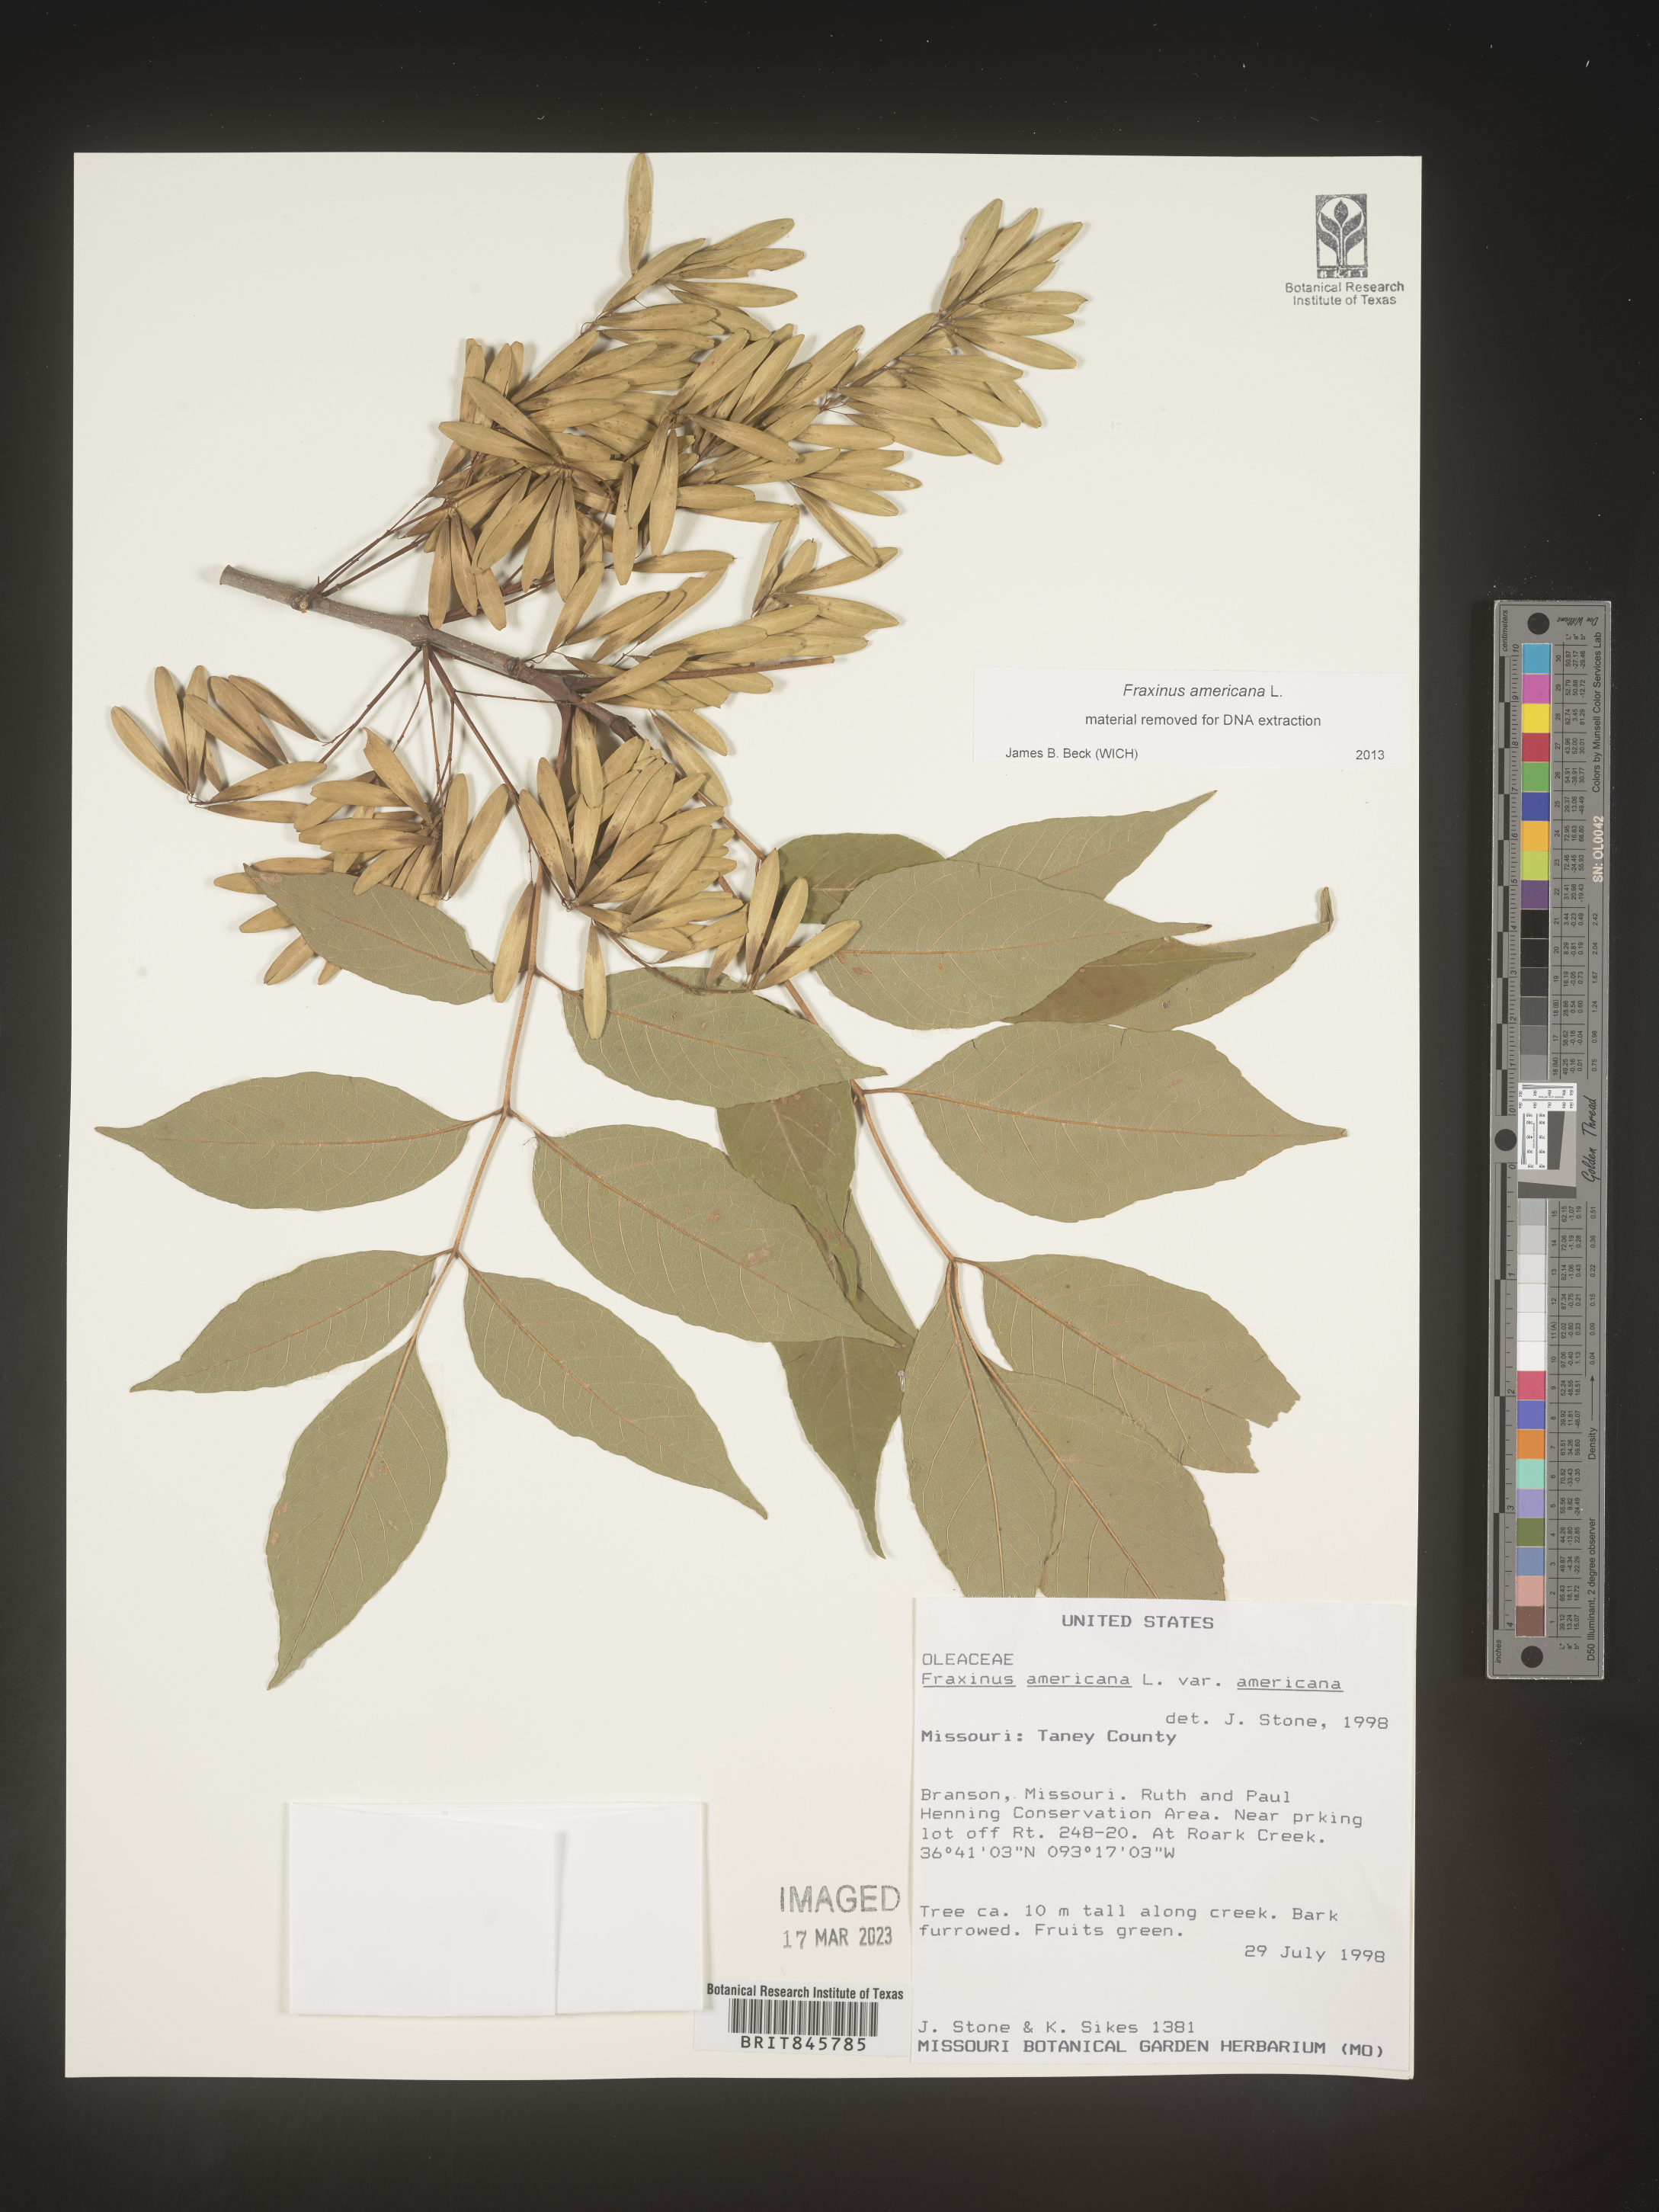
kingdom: Plantae
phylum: Tracheophyta
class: Magnoliopsida
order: Lamiales
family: Oleaceae
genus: Fraxinus
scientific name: Fraxinus americana
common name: White ash
